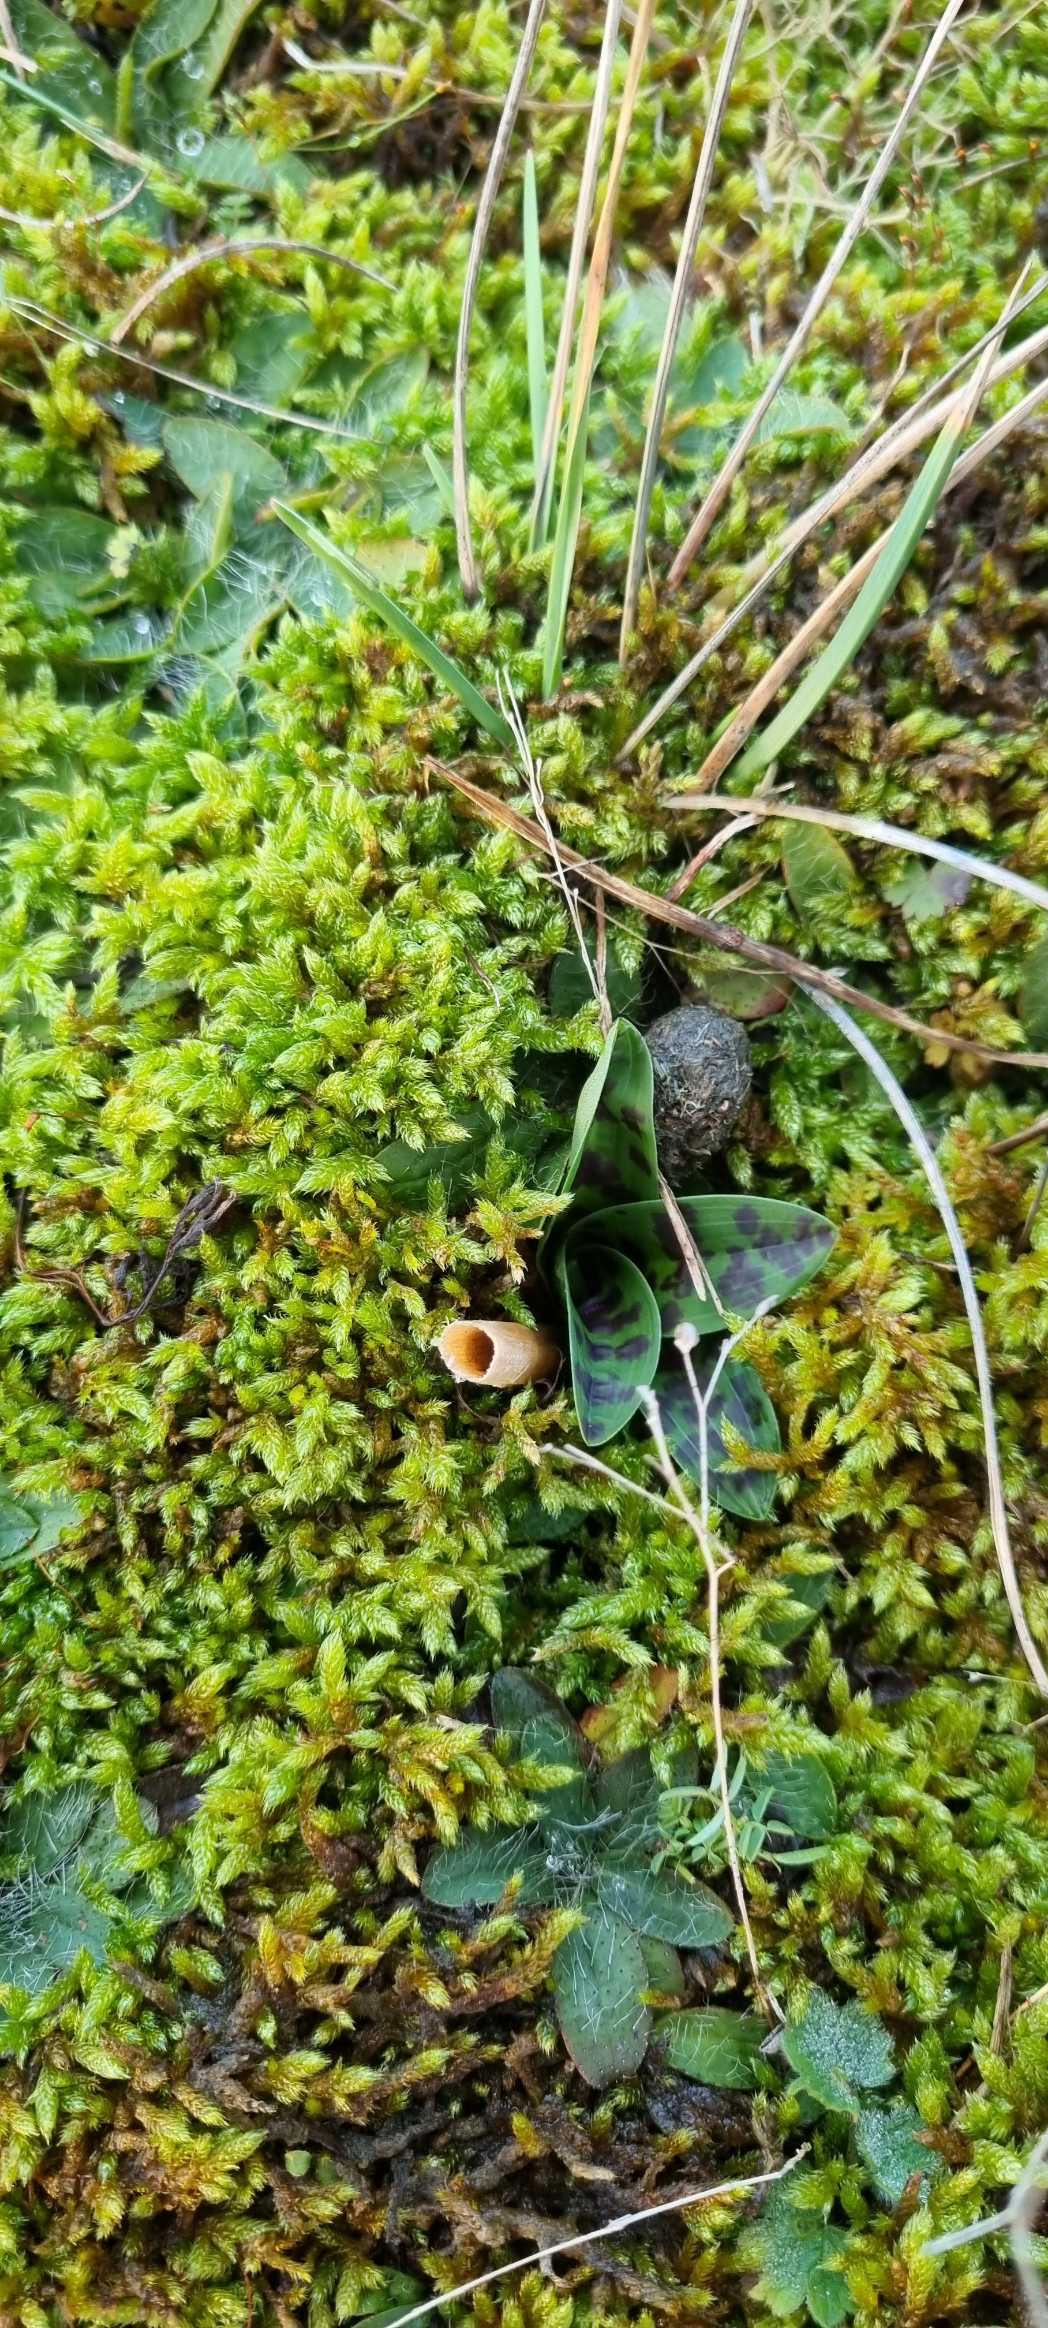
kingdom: Plantae
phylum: Tracheophyta
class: Liliopsida
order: Asparagales
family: Orchidaceae
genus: Orchis
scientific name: Orchis mascula
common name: Tyndakset gøgeurt
